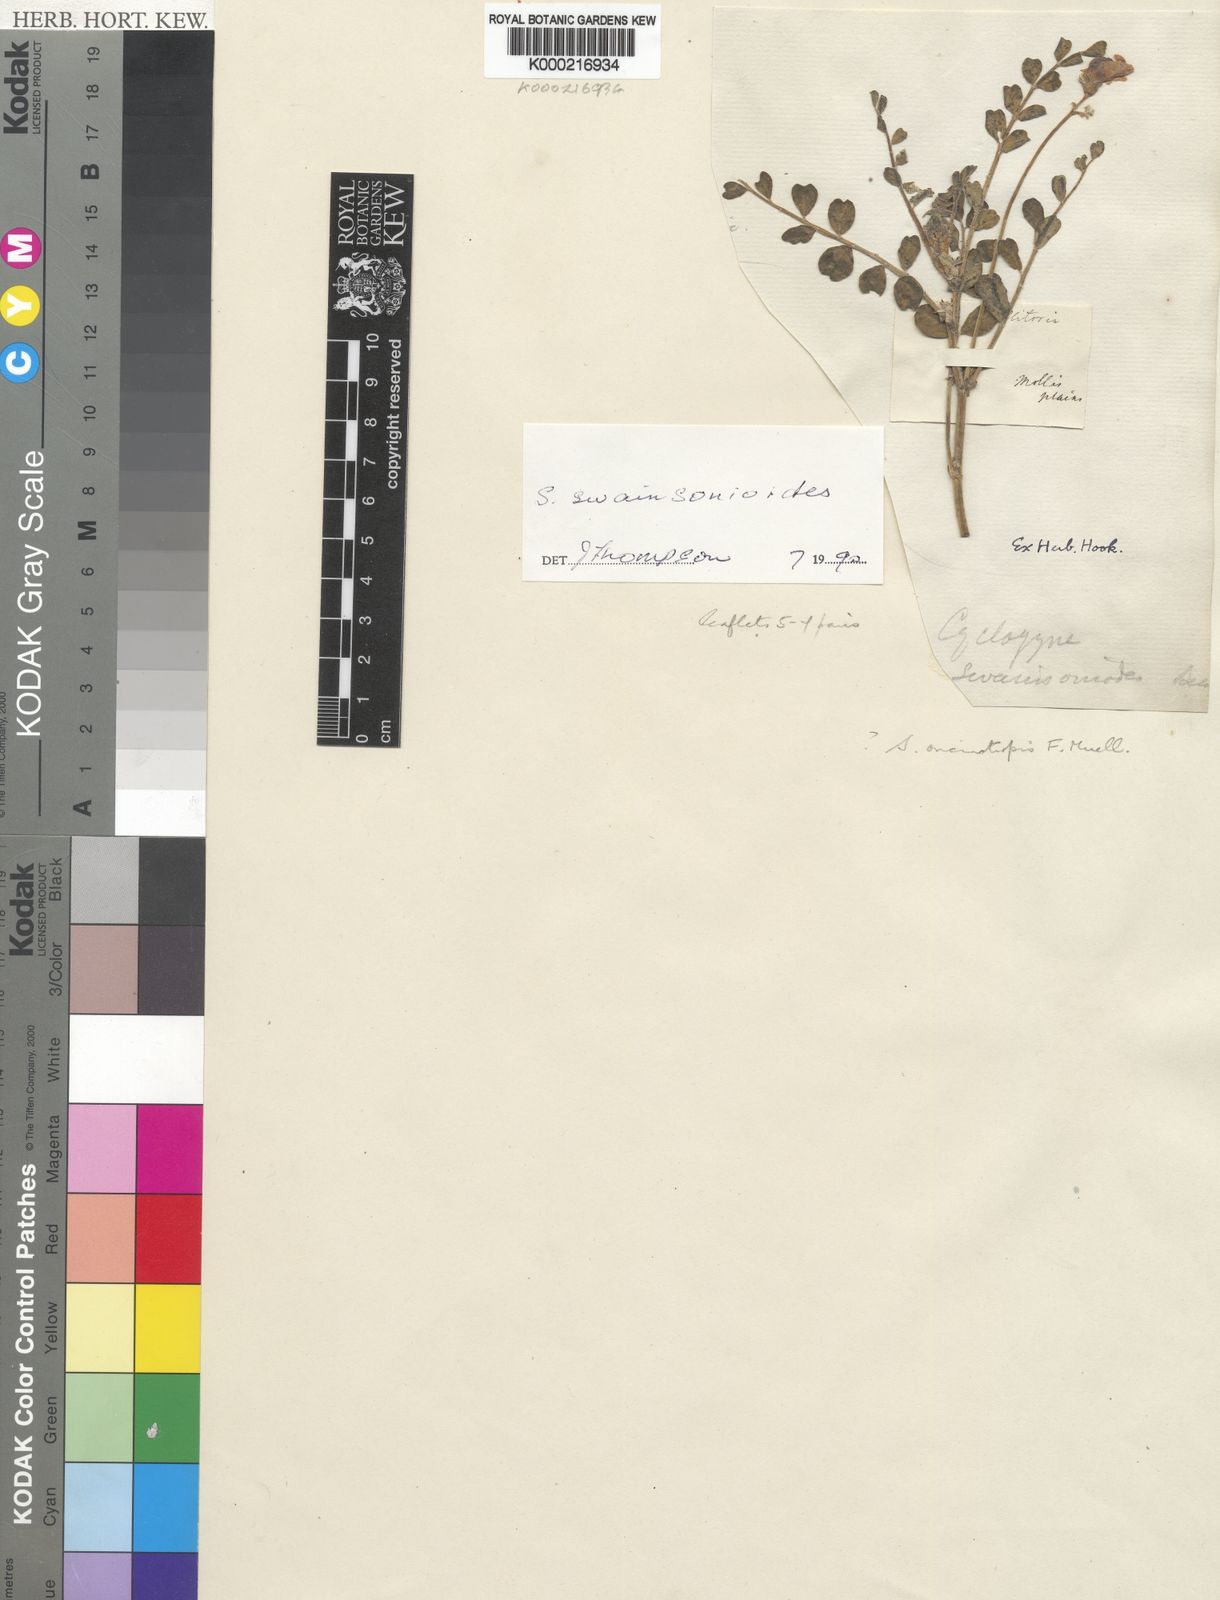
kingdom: Plantae
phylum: Tracheophyta
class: Magnoliopsida
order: Fabales
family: Fabaceae
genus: Swainsona
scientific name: Swainsona swainsonioides
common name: Downy swainsona
